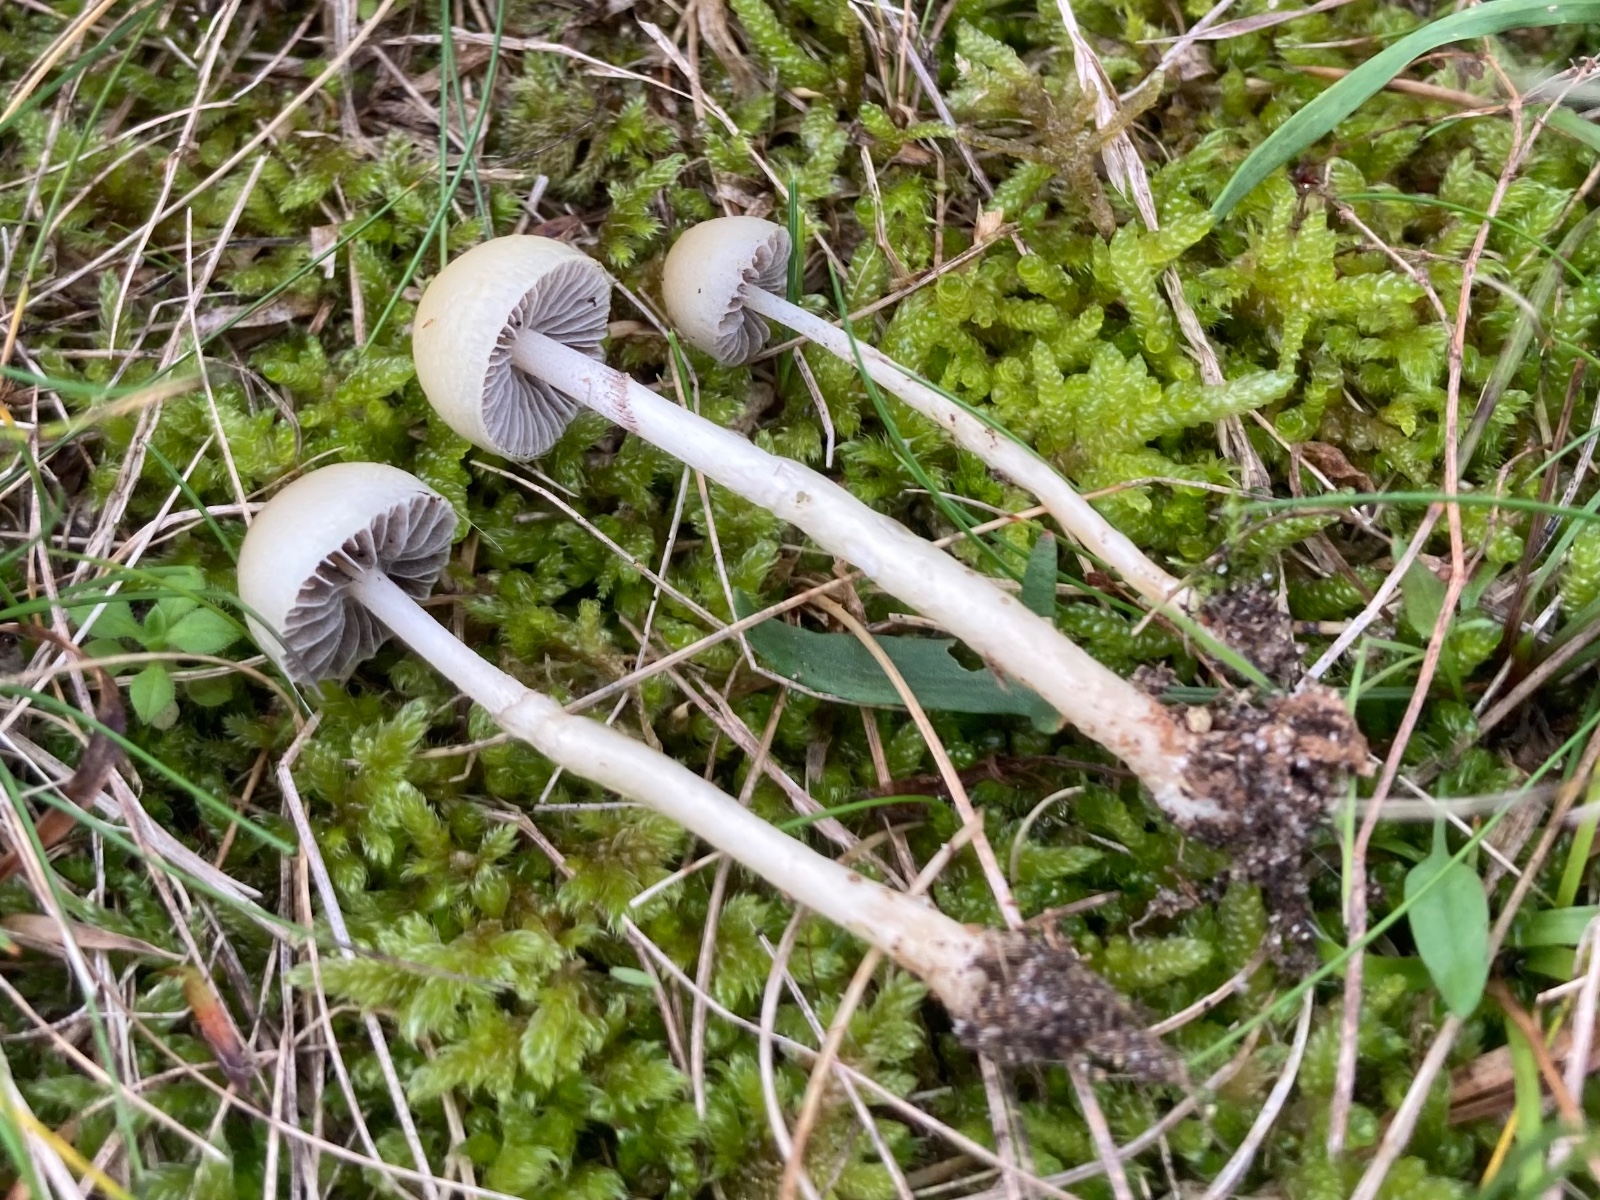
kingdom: Fungi
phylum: Basidiomycota
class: Agaricomycetes
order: Agaricales
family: Strophariaceae
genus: Protostropharia
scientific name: Protostropharia semiglobata
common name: halvkugleformet bredblad
